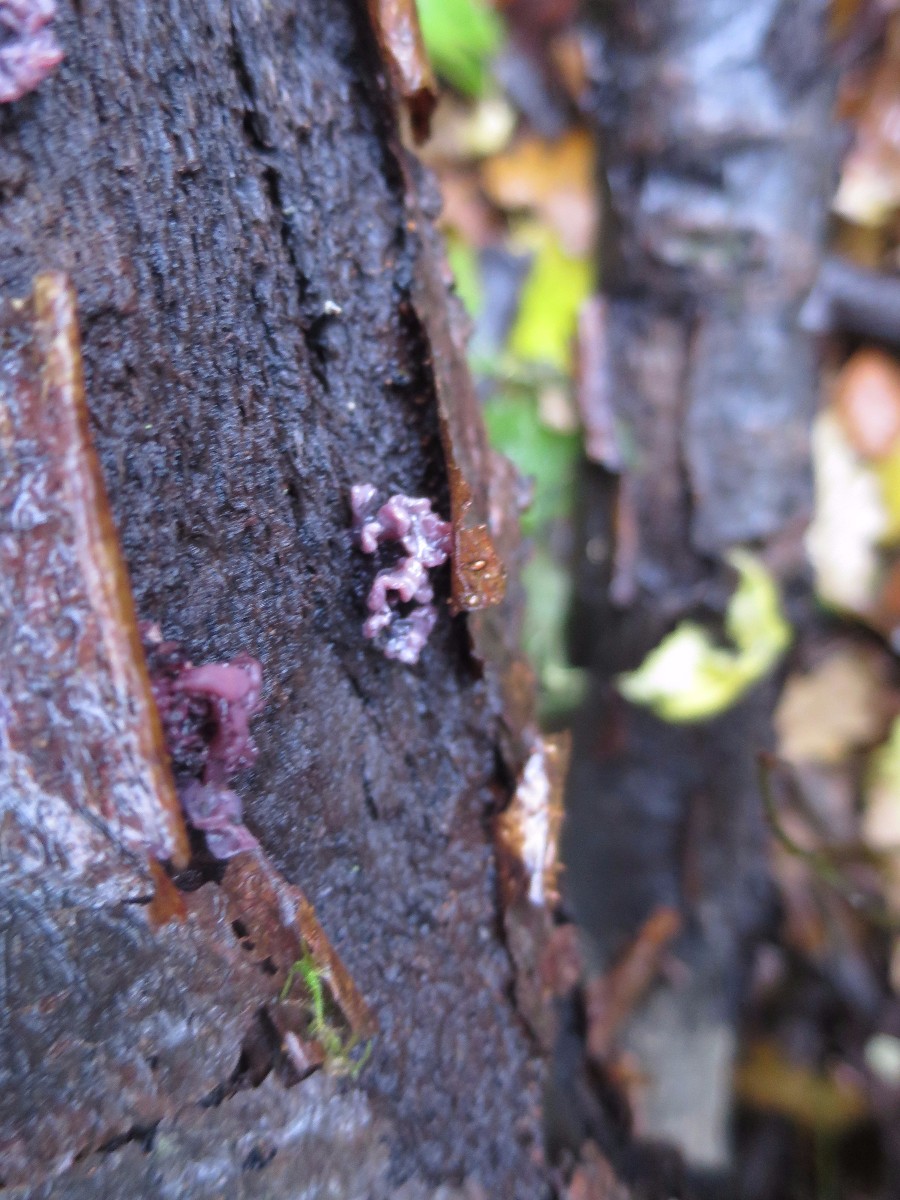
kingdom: Fungi
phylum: Ascomycota
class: Leotiomycetes
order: Helotiales
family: Gelatinodiscaceae
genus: Ascocoryne
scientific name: Ascocoryne sarcoides
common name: rødlilla sejskive
